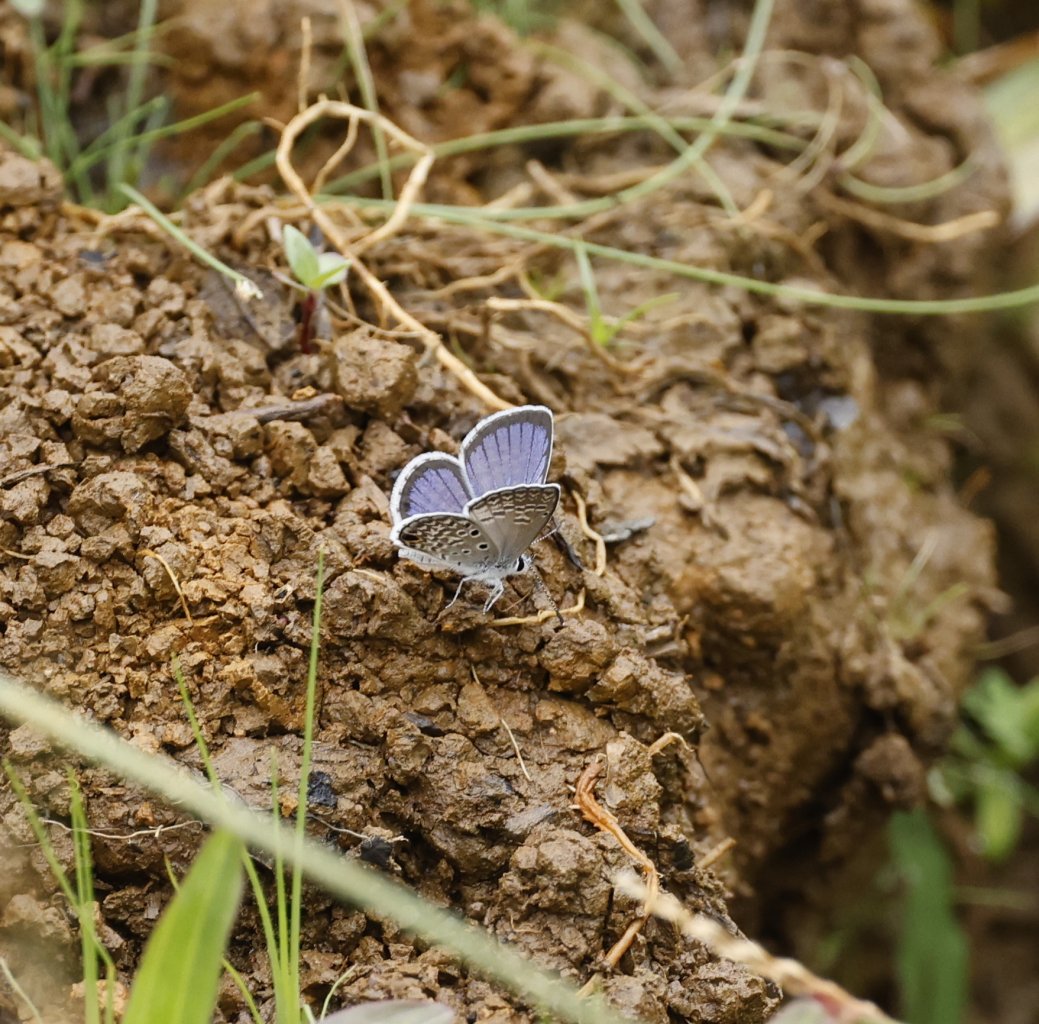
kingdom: Animalia
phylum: Arthropoda
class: Insecta
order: Lepidoptera
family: Lycaenidae
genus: Hemiargus
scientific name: Hemiargus ceraunus
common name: Ceraunus Blue
